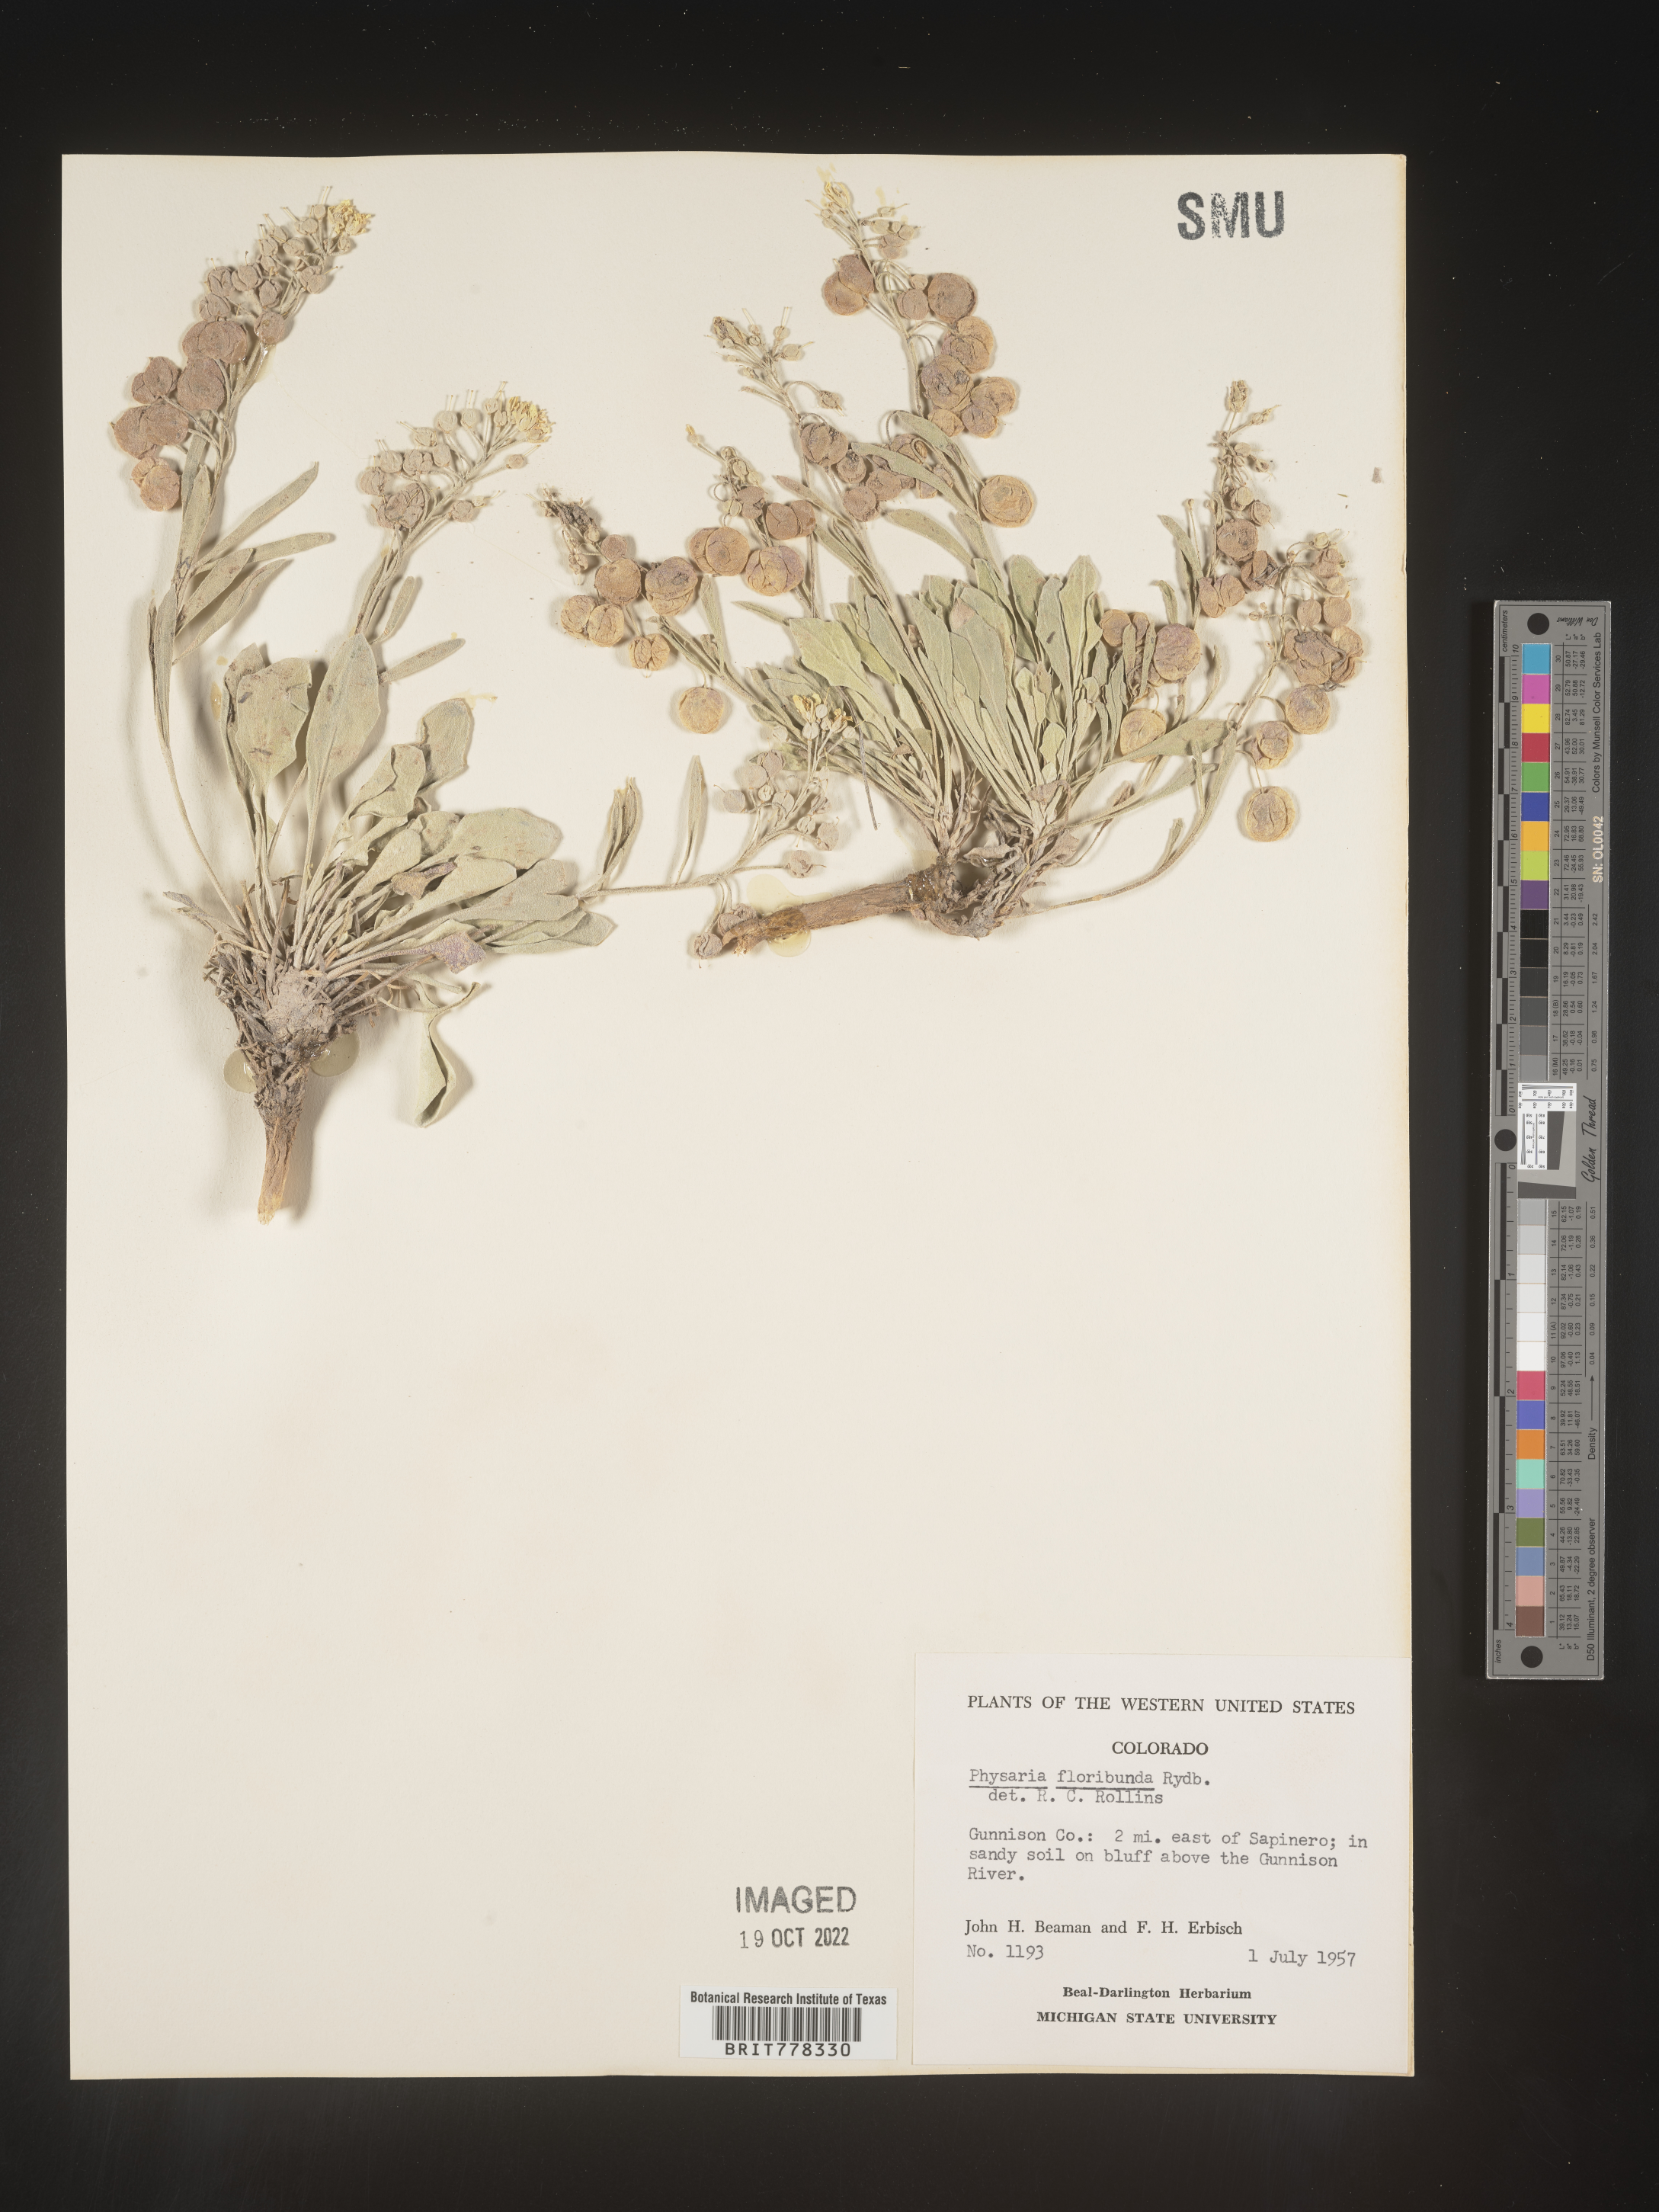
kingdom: Plantae
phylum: Tracheophyta
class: Magnoliopsida
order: Brassicales
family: Brassicaceae
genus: Physaria
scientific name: Physaria
